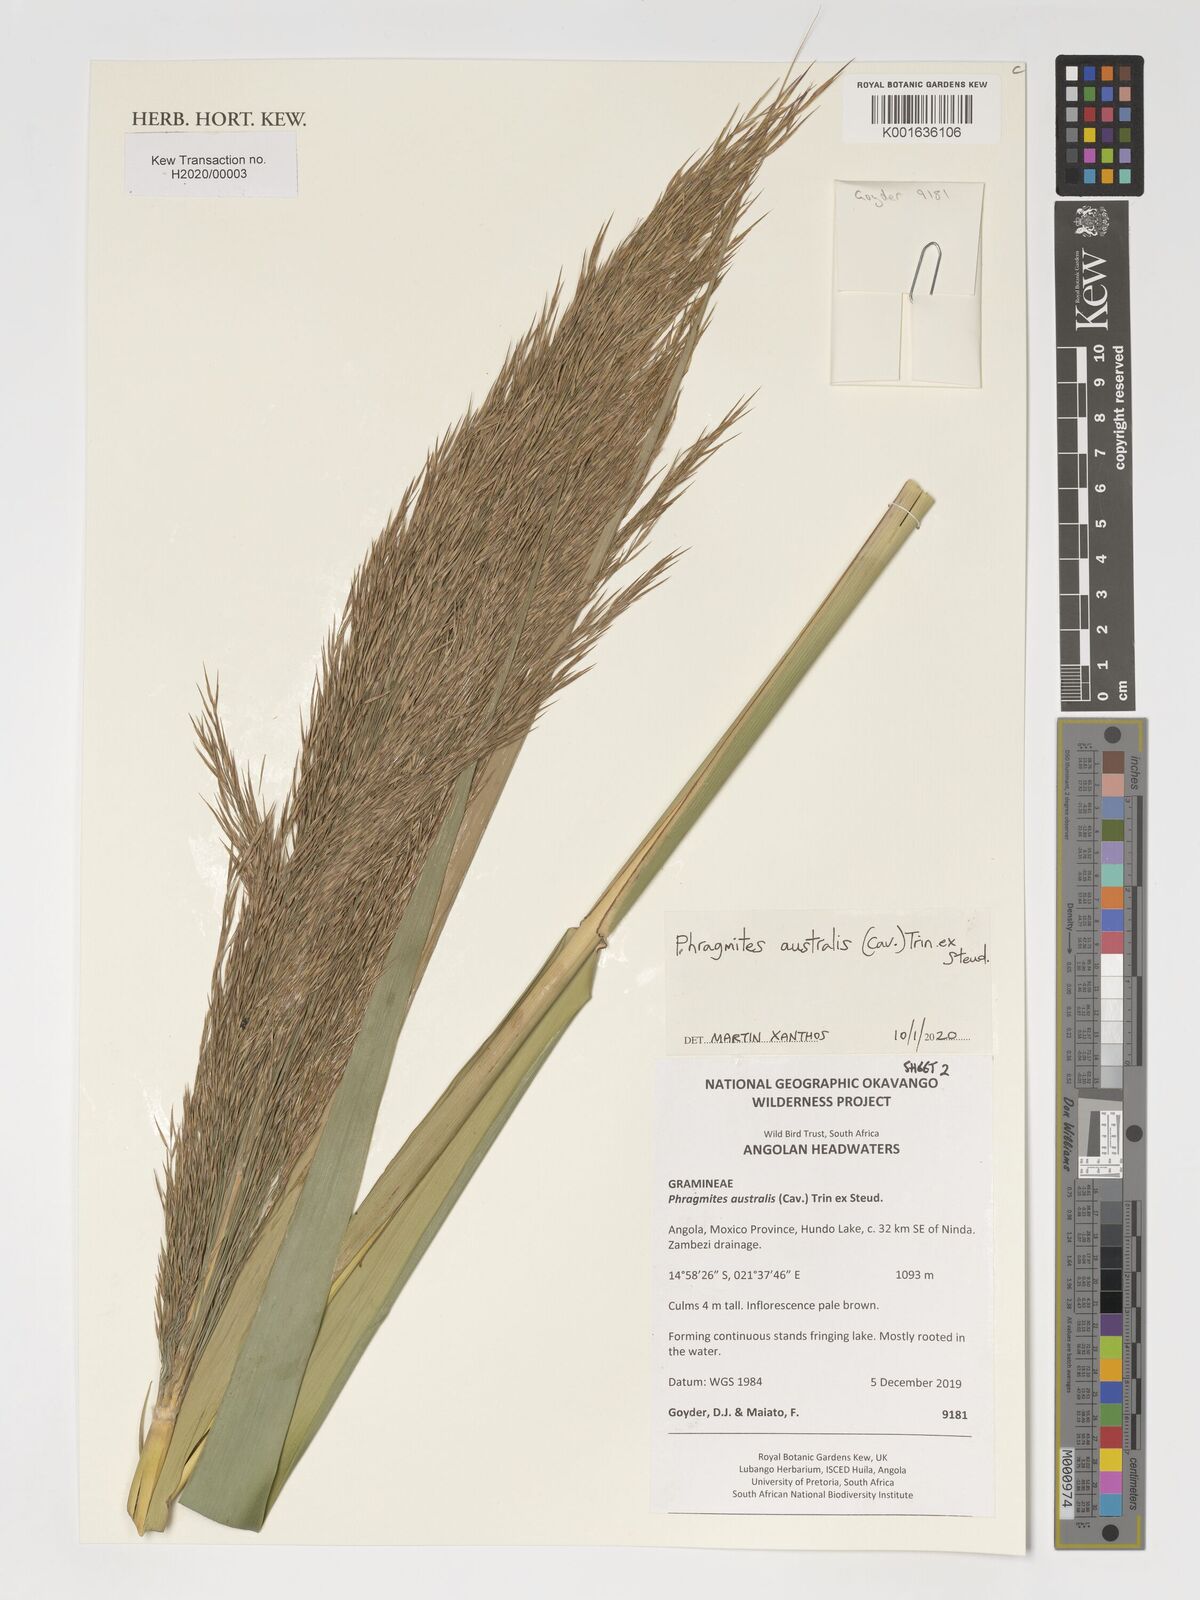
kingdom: Plantae
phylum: Tracheophyta
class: Liliopsida
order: Poales
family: Poaceae
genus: Phragmites
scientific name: Phragmites australis
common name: Common reed
